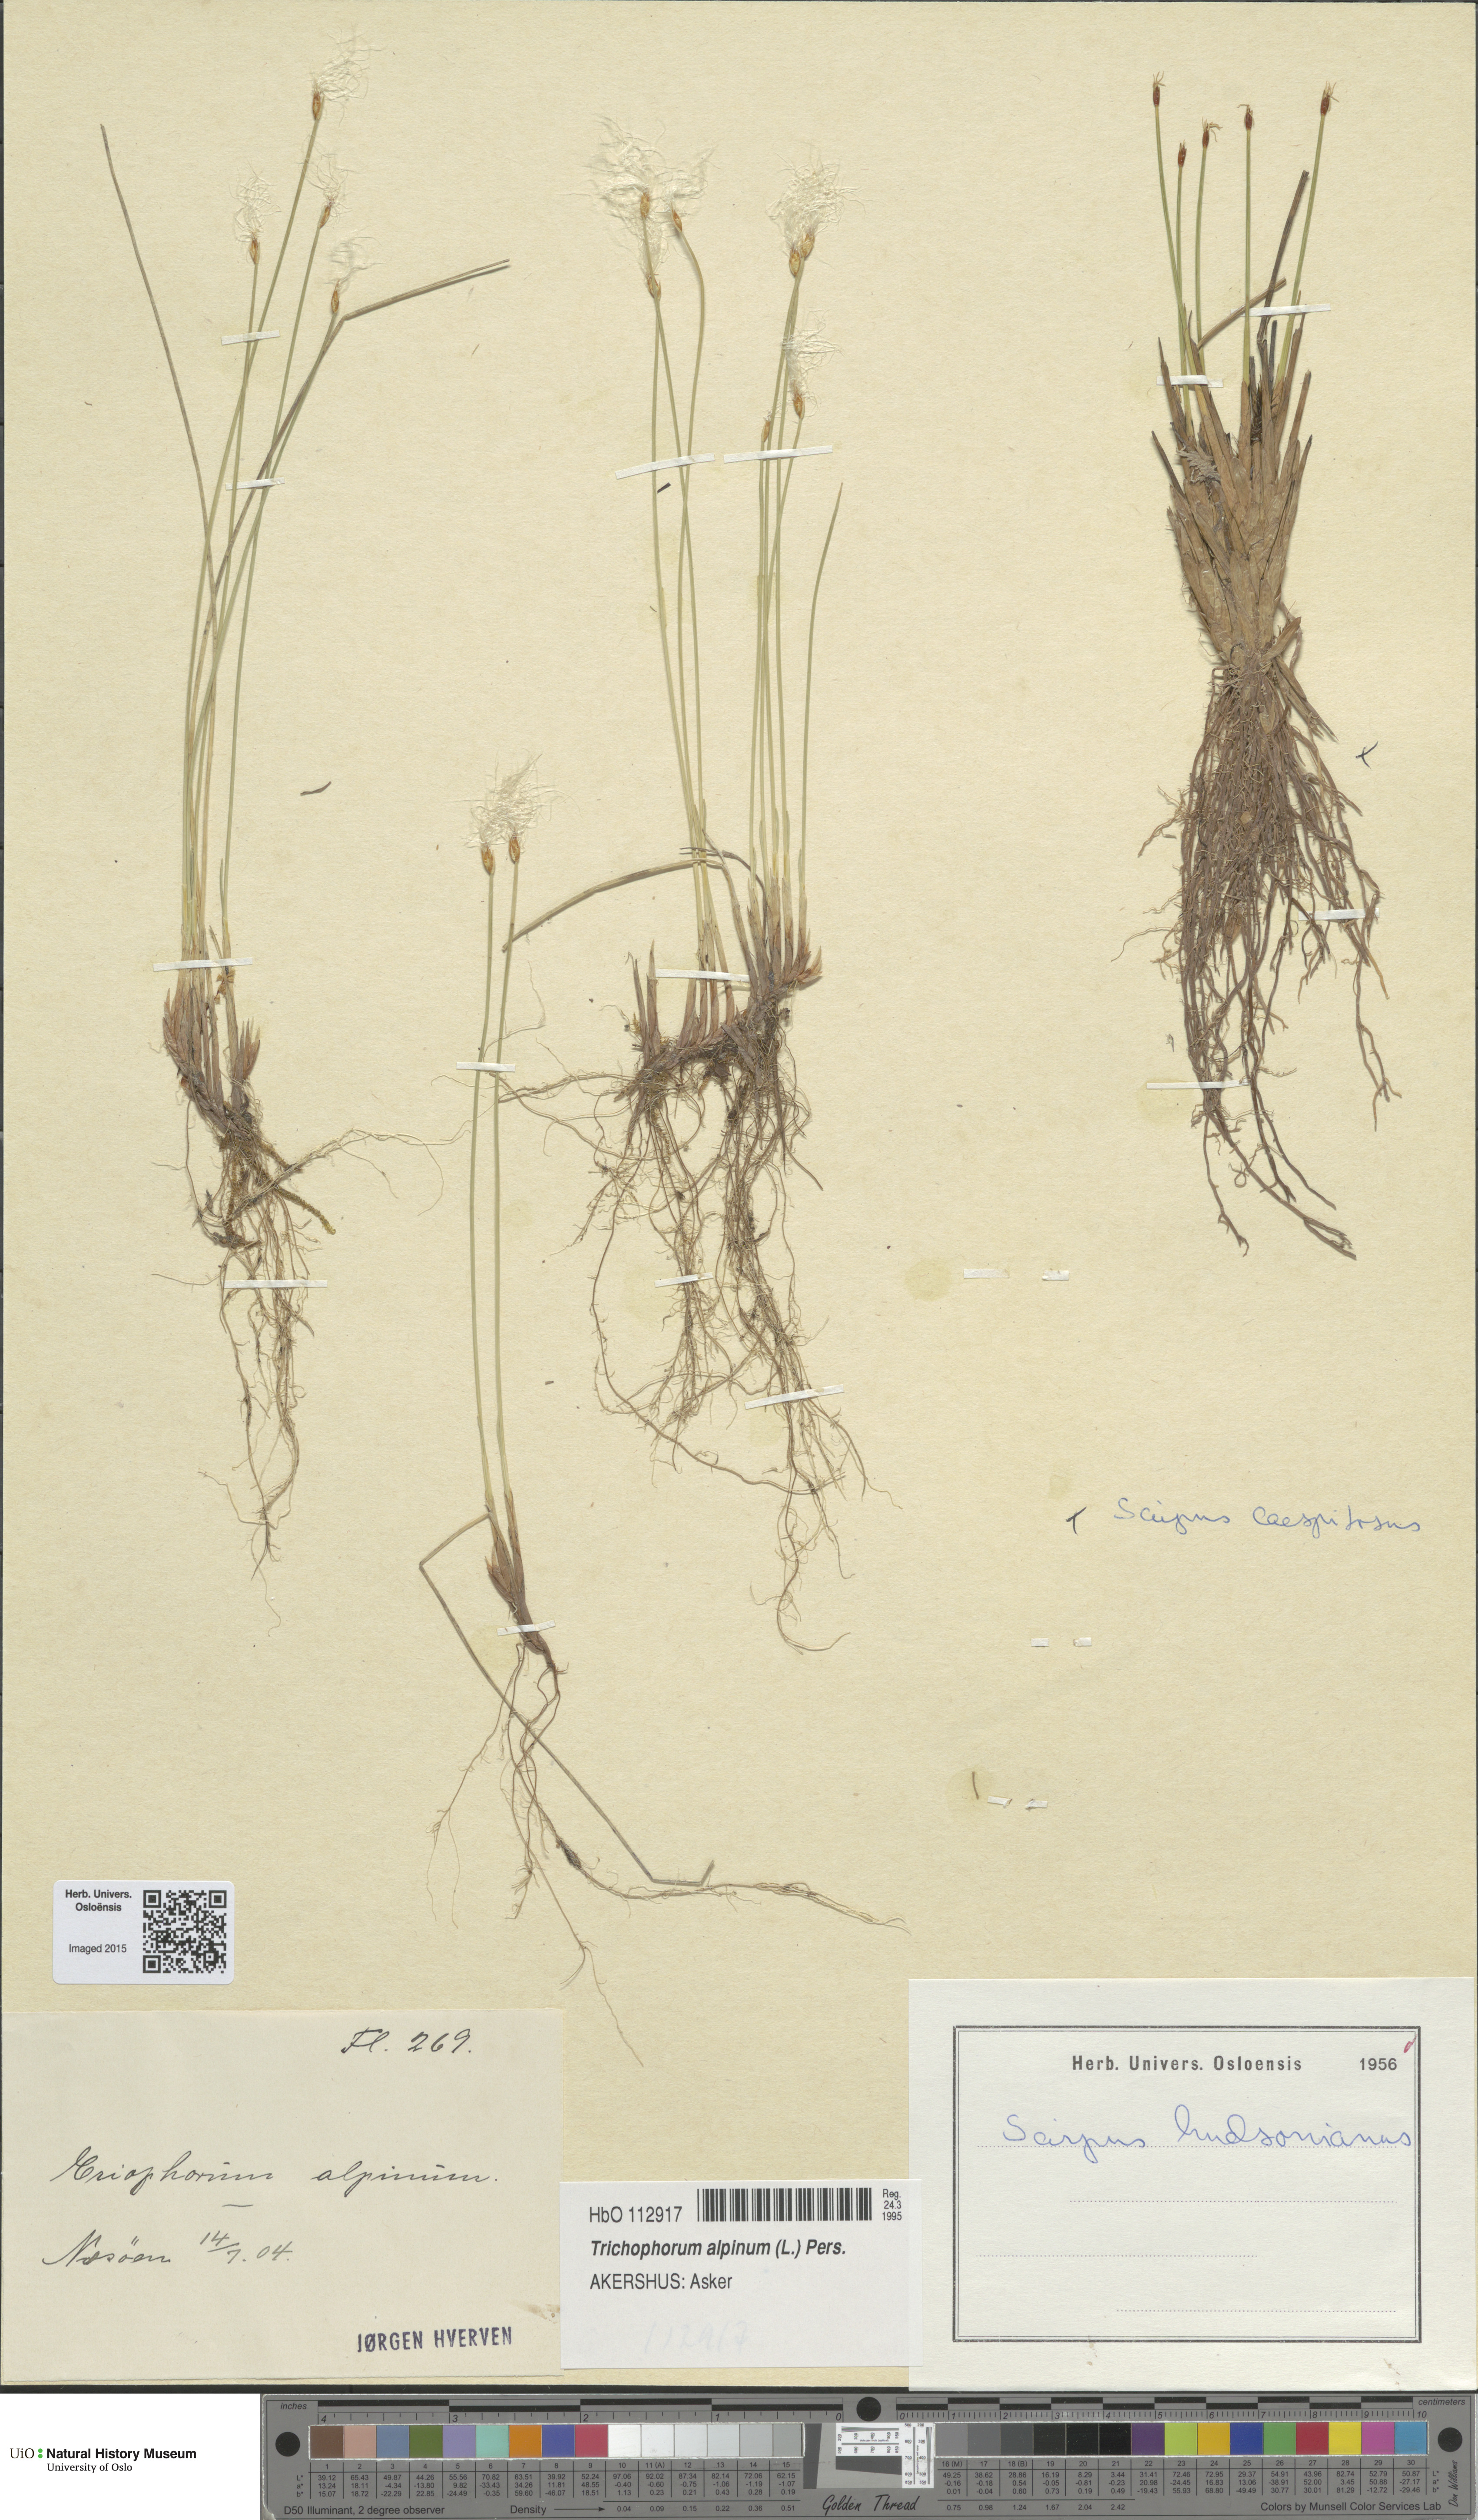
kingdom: Plantae
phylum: Tracheophyta
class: Liliopsida
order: Poales
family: Cyperaceae
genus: Trichophorum
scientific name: Trichophorum alpinum
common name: Alpine bulrush
